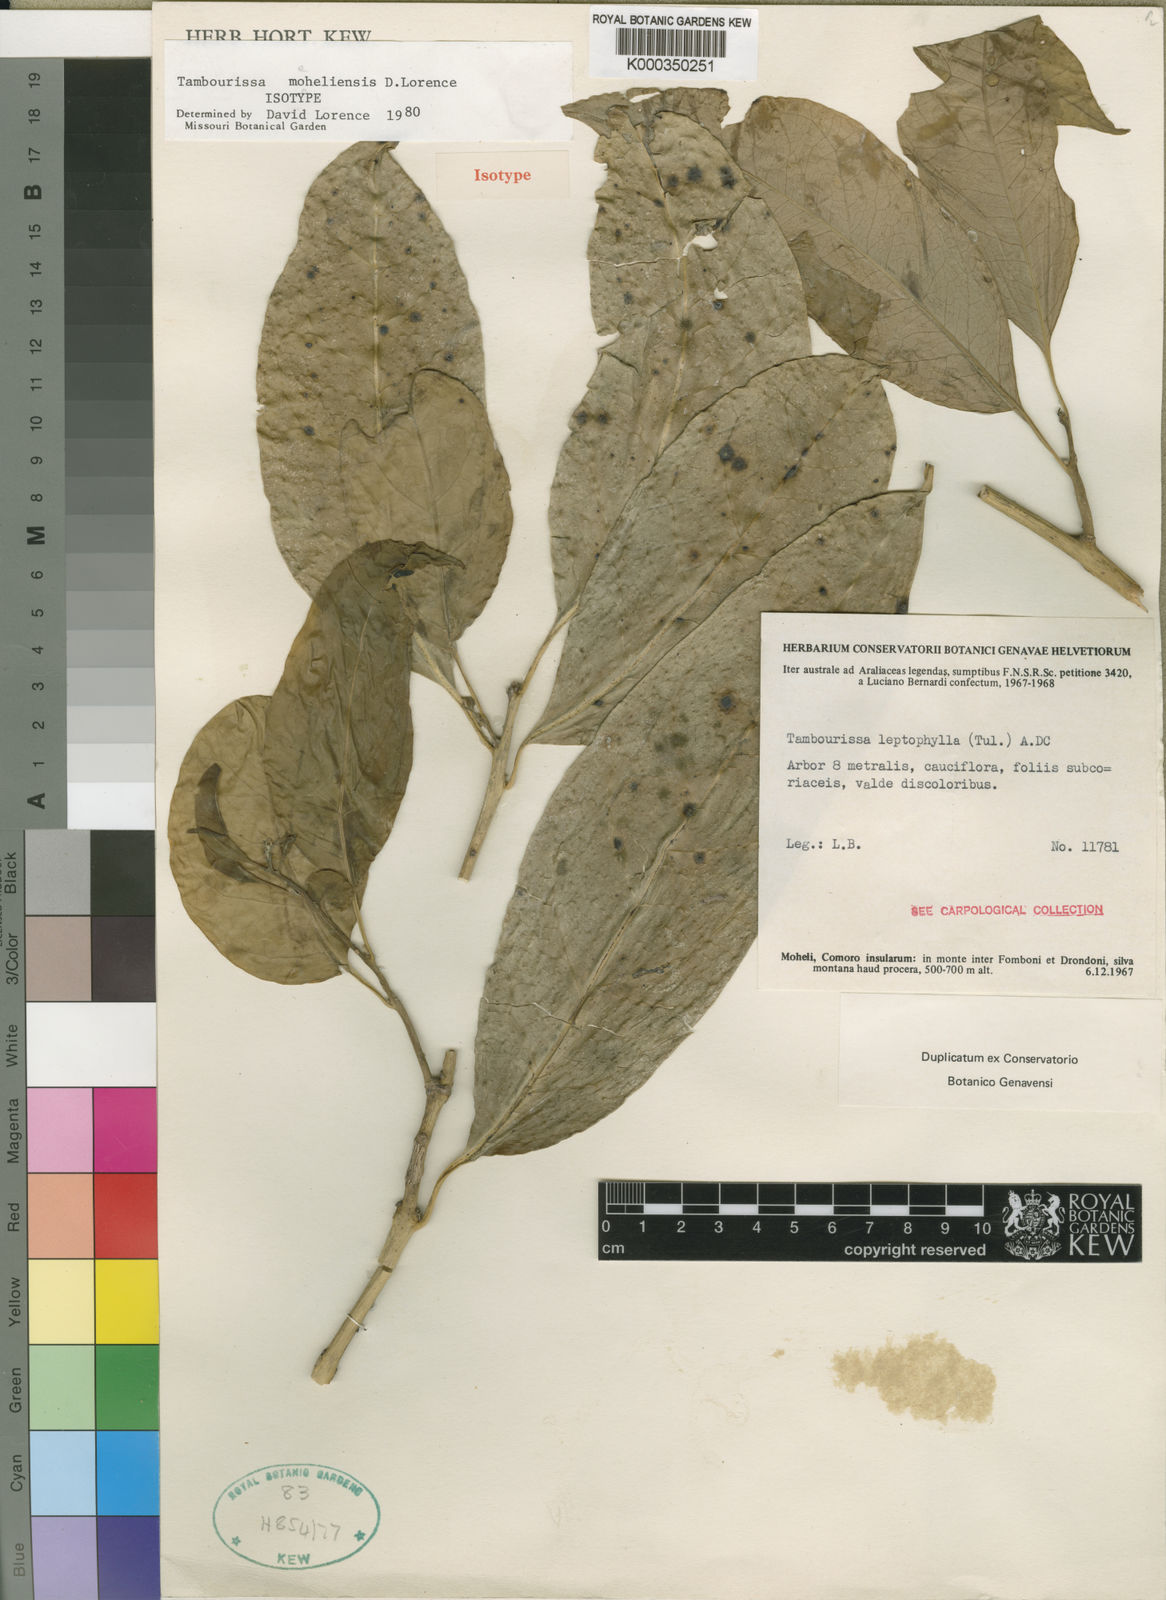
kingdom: Plantae
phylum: Tracheophyta
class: Magnoliopsida
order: Laurales
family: Monimiaceae
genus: Tambourissa
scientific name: Tambourissa moeheliensis
